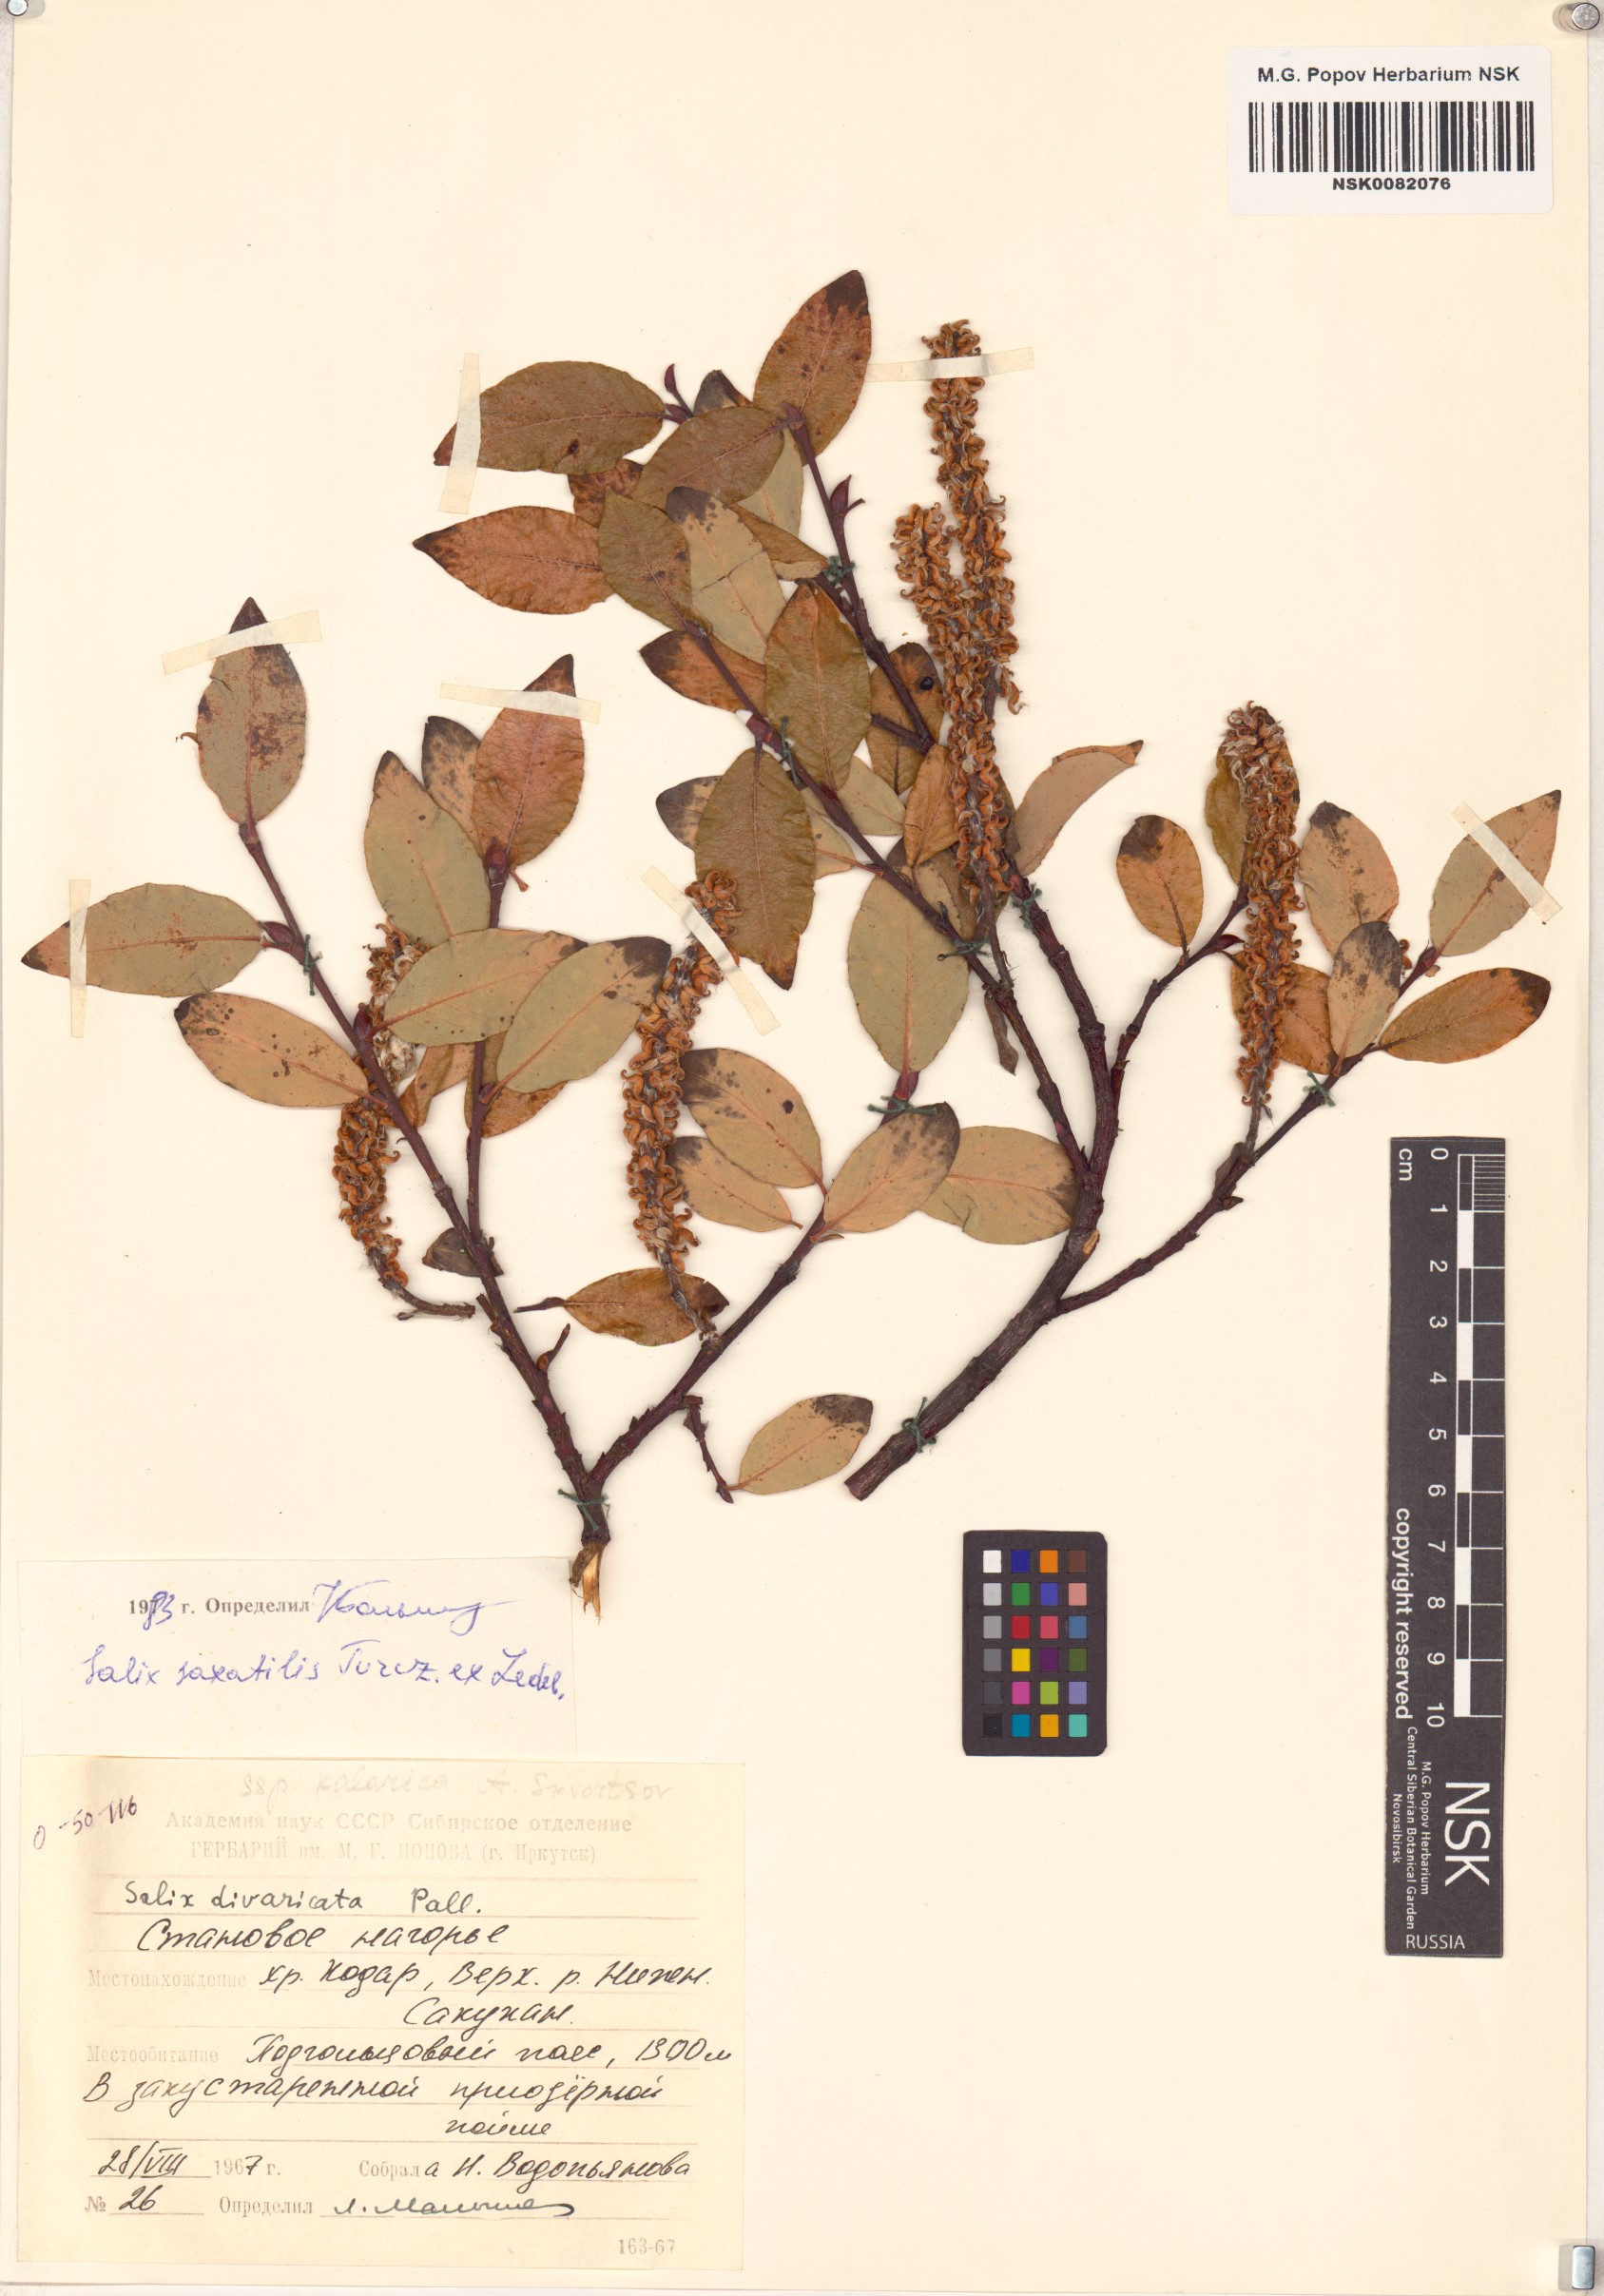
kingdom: Plantae
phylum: Tracheophyta
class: Magnoliopsida
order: Malpighiales
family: Salicaceae
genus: Salix
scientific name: Salix saxatilis
